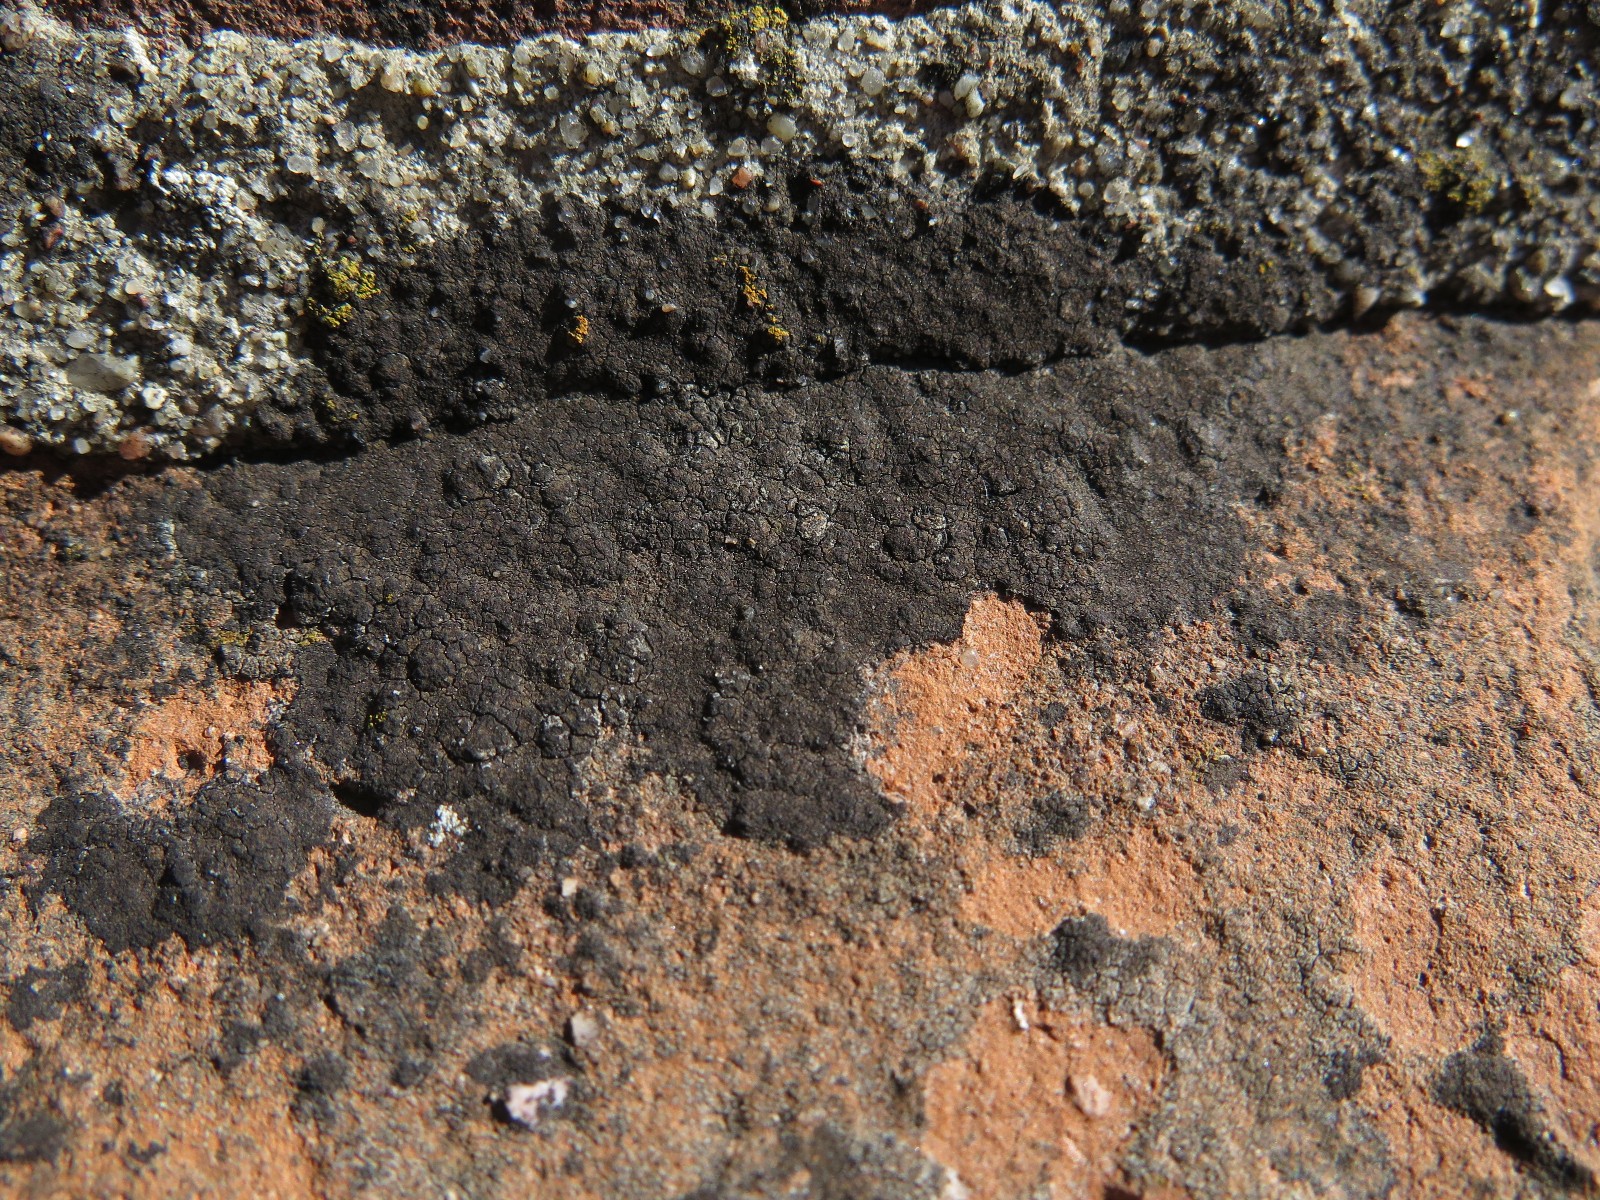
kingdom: Fungi
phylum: Ascomycota
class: Eurotiomycetes
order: Verrucariales
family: Verrucariaceae
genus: Verrucaria
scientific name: Verrucaria nigrescens
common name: sortbrun vortelav
